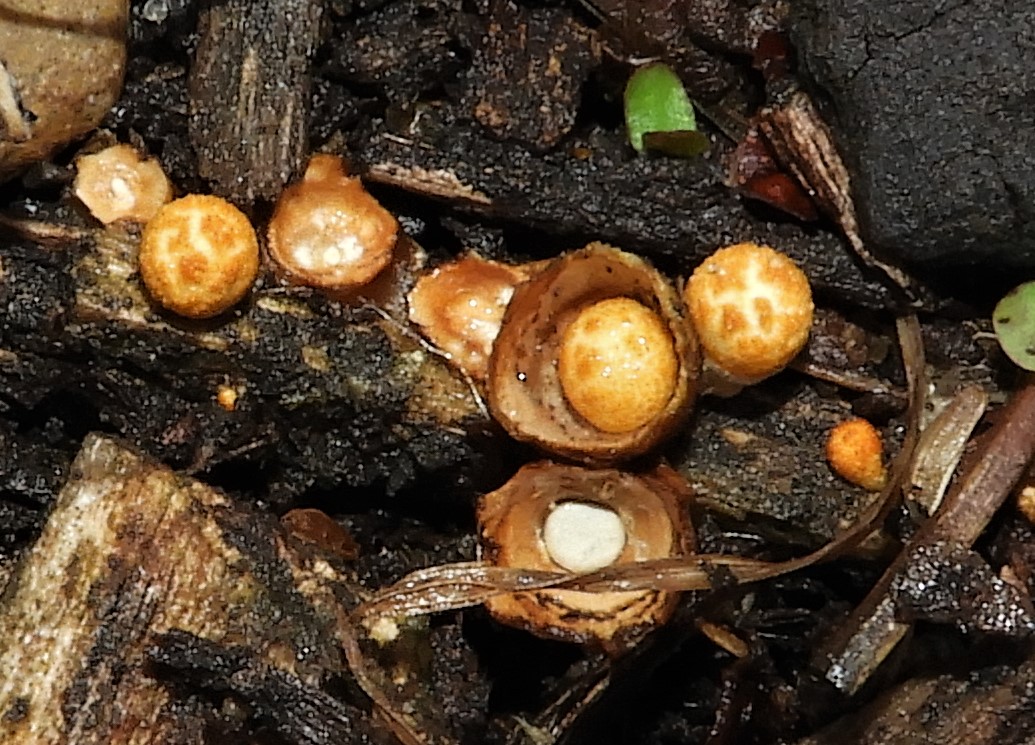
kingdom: Fungi
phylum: Basidiomycota
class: Agaricomycetes
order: Agaricales
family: Nidulariaceae
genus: Crucibulum
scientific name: Crucibulum crucibuliforme
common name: krukkesvamp
